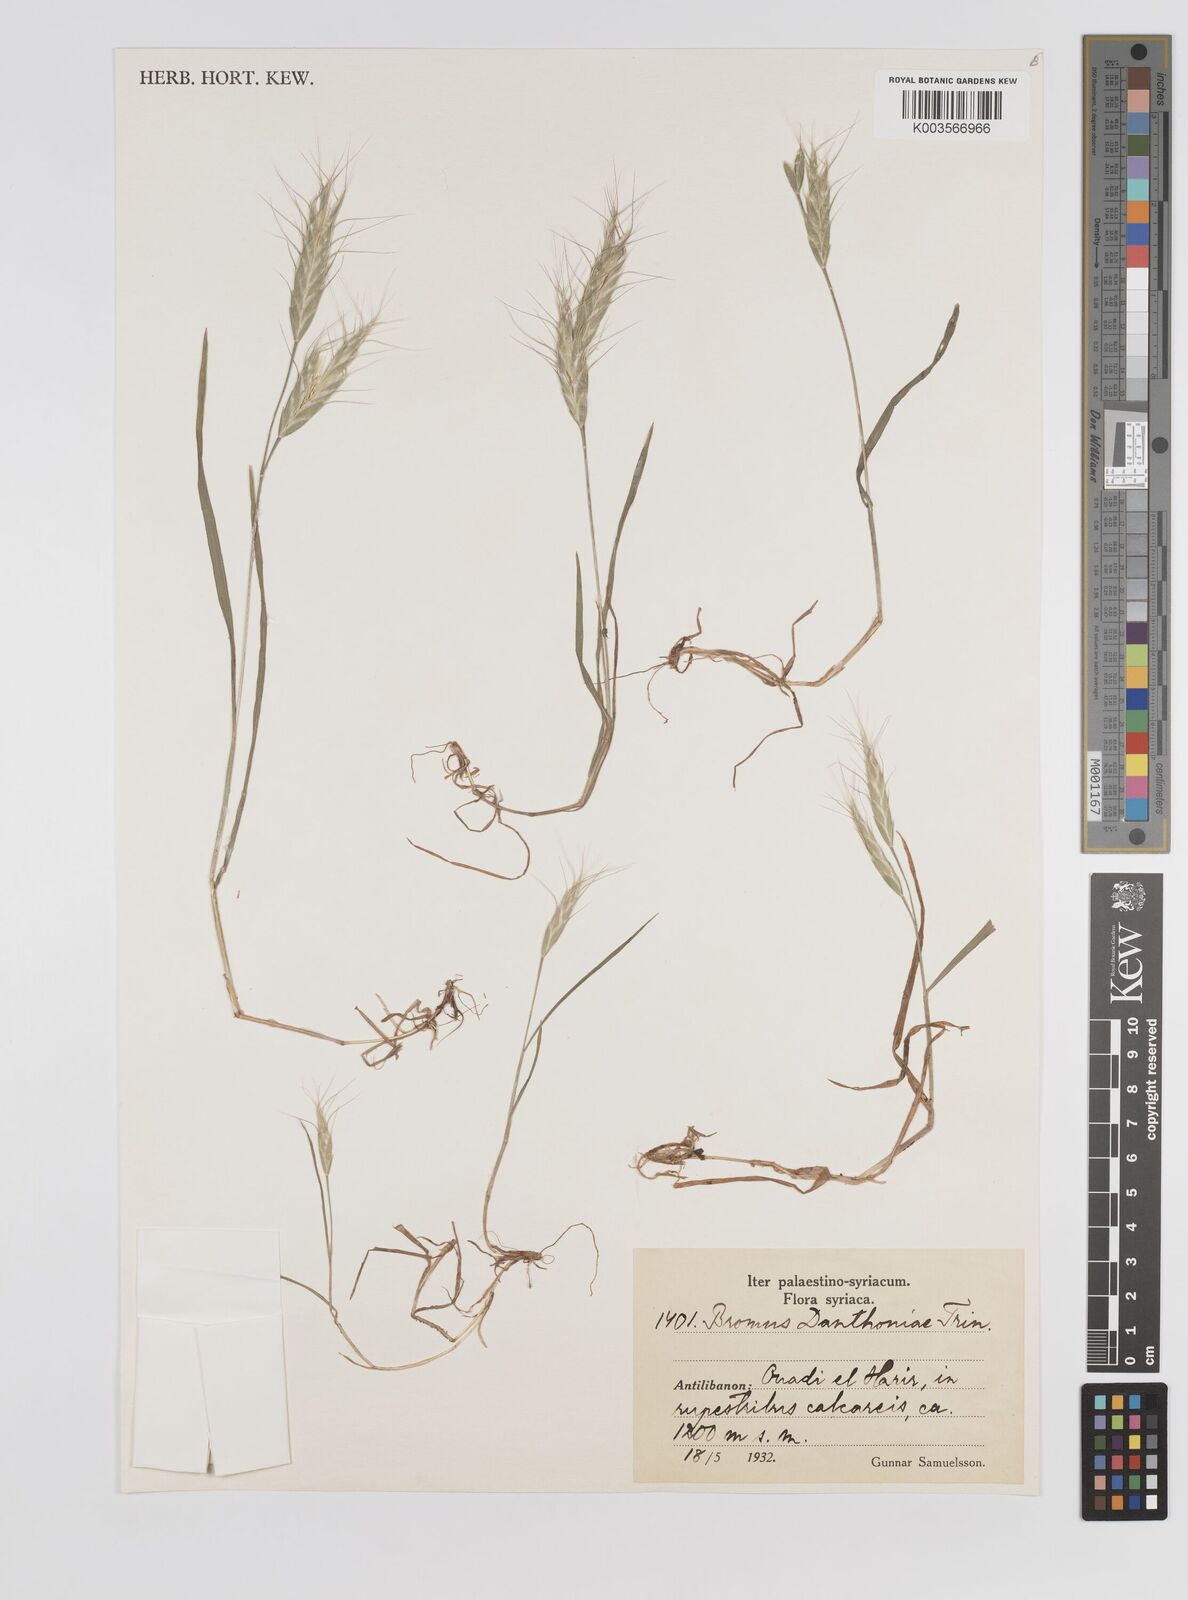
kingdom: Plantae
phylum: Tracheophyta
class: Liliopsida
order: Poales
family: Poaceae
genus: Bromus
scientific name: Bromus danthoniae
